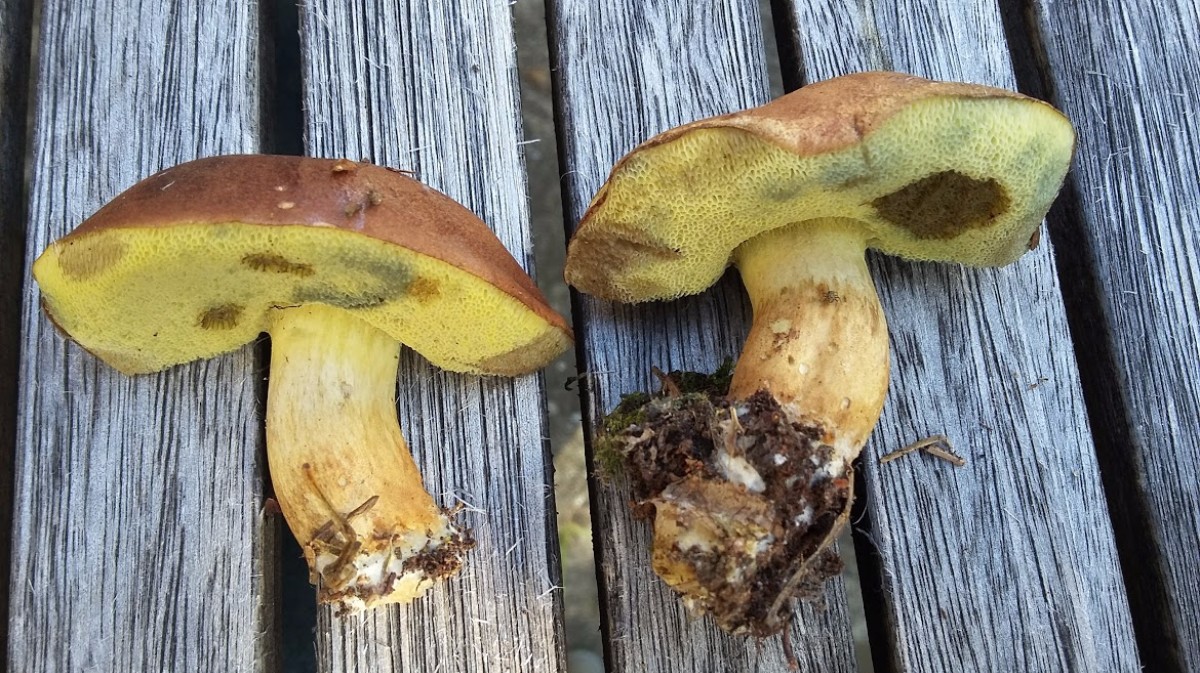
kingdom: Fungi
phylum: Basidiomycota
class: Agaricomycetes
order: Boletales
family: Boletaceae
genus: Imleria
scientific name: Imleria badia
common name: brunstokket rørhat
